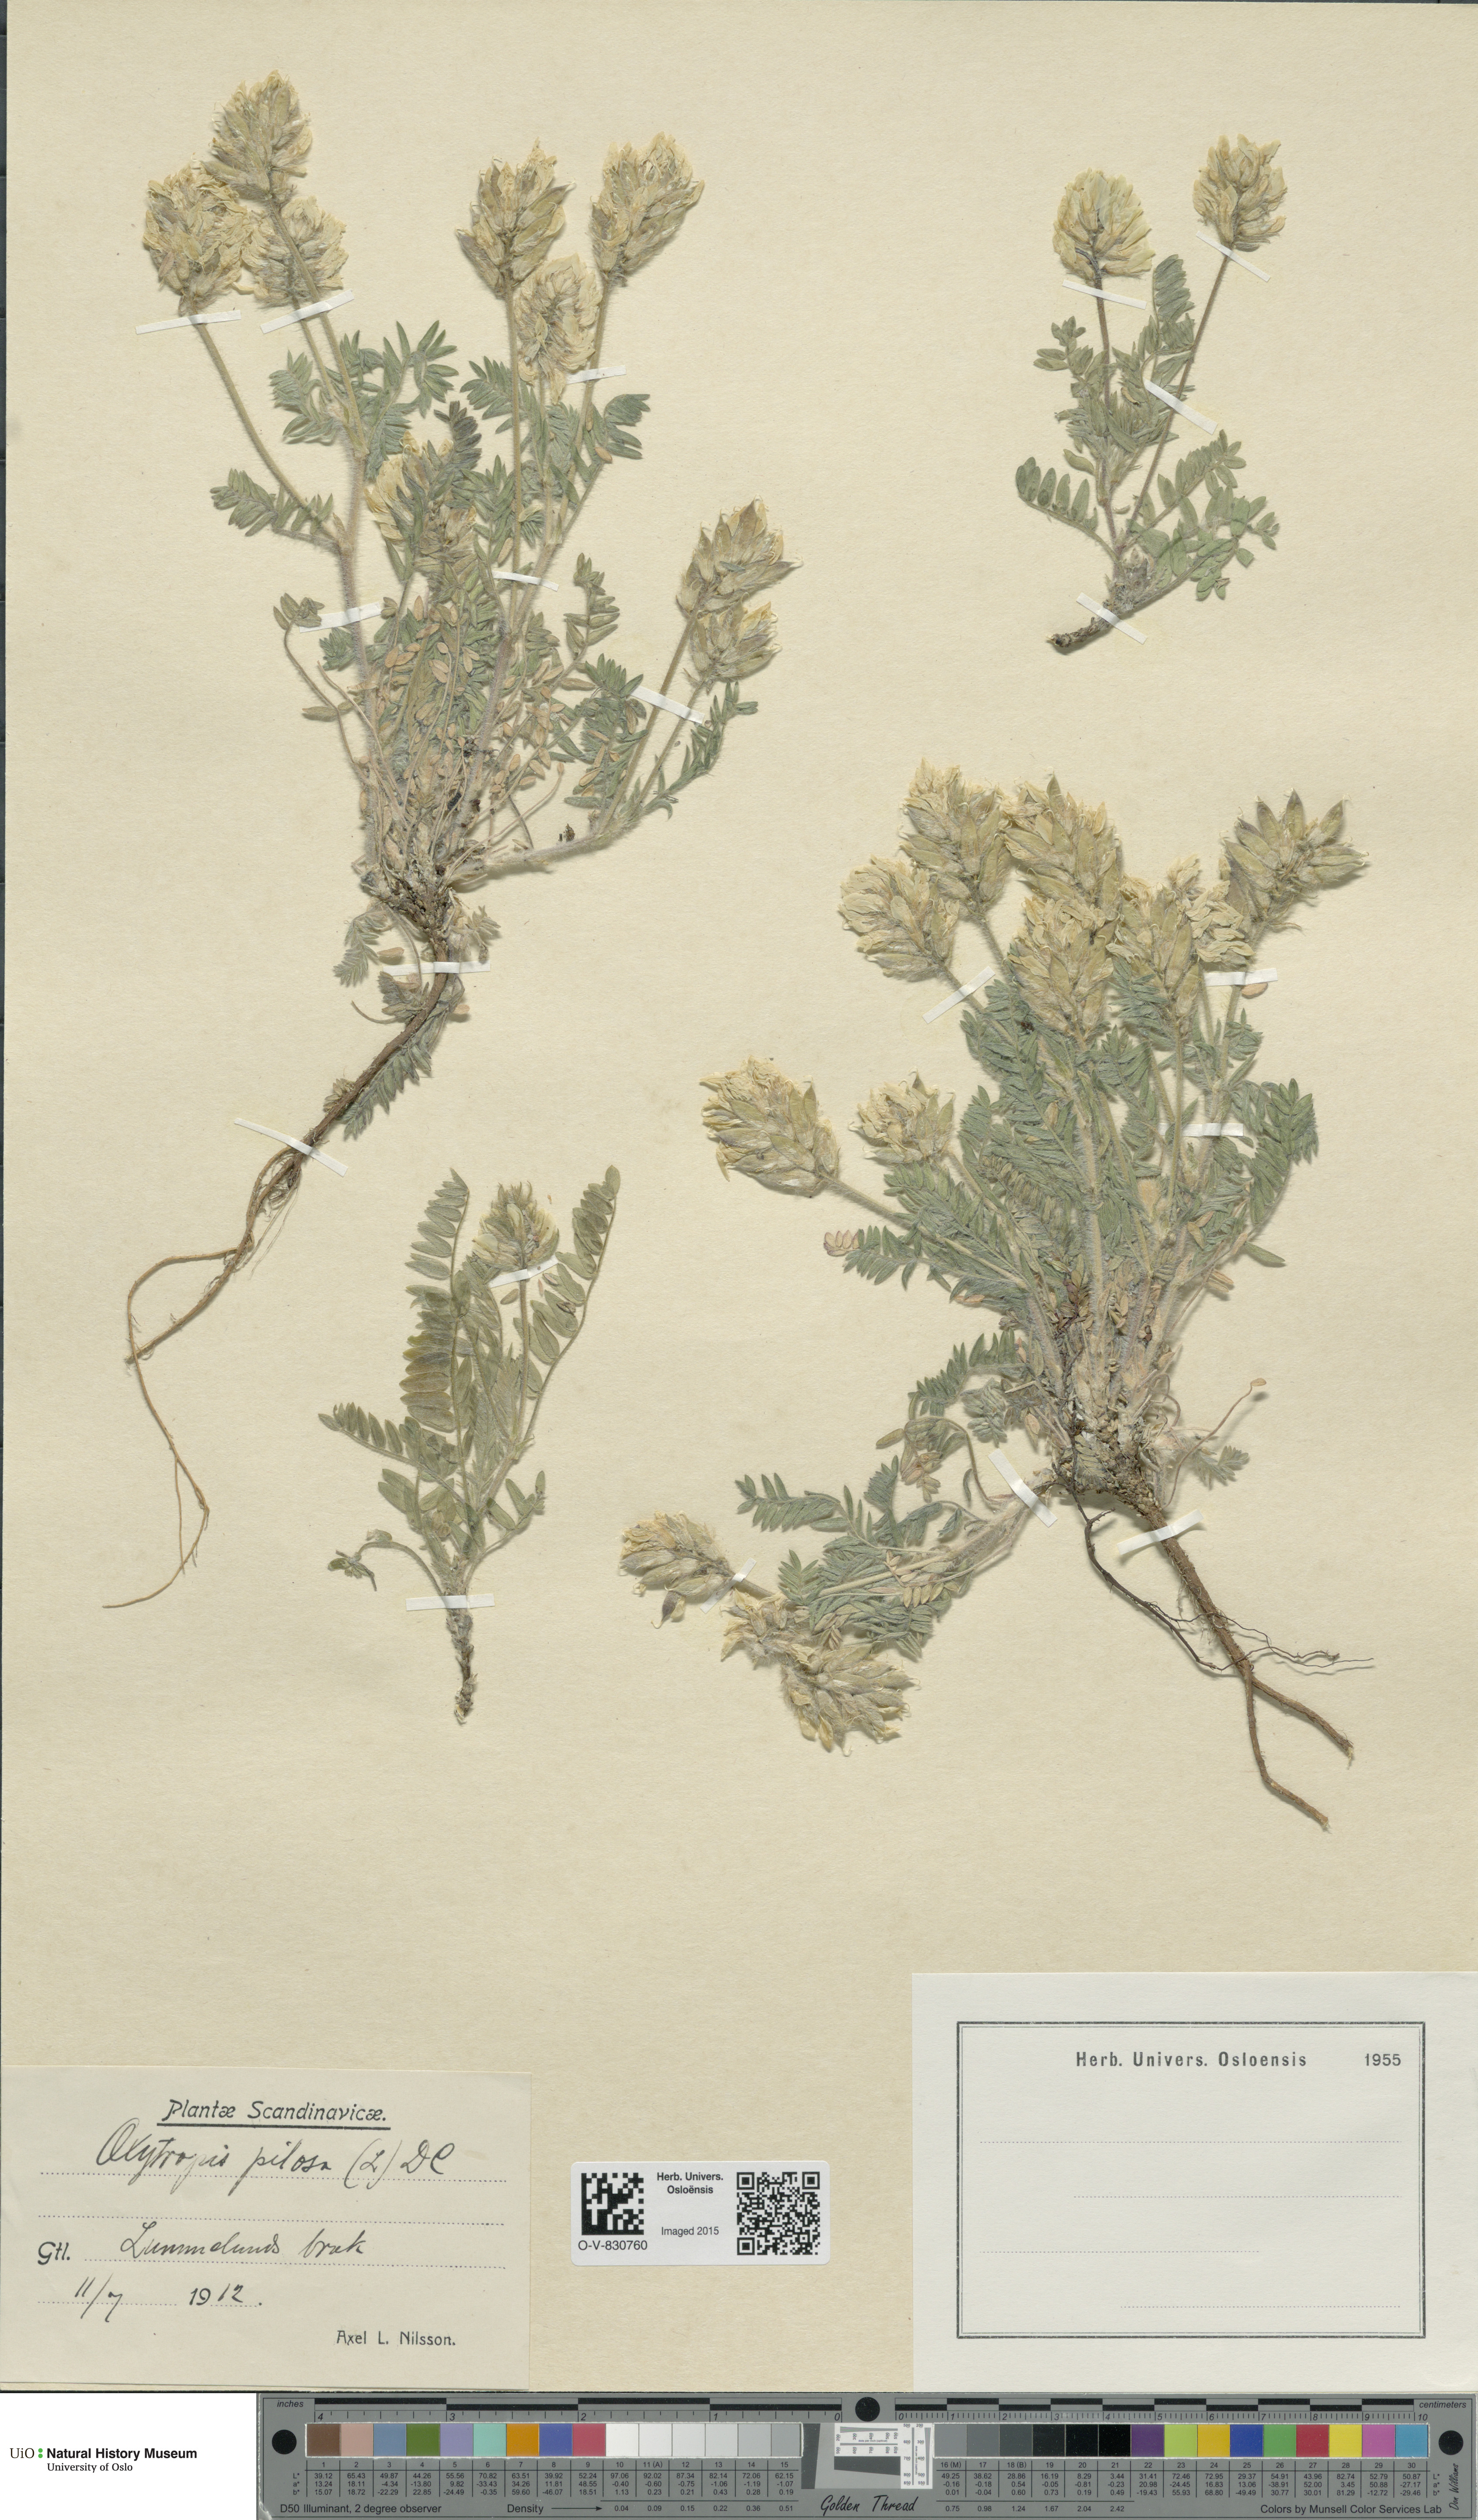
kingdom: Plantae
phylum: Tracheophyta
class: Magnoliopsida
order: Fabales
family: Fabaceae
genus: Oxytropis
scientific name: Oxytropis pilosa
